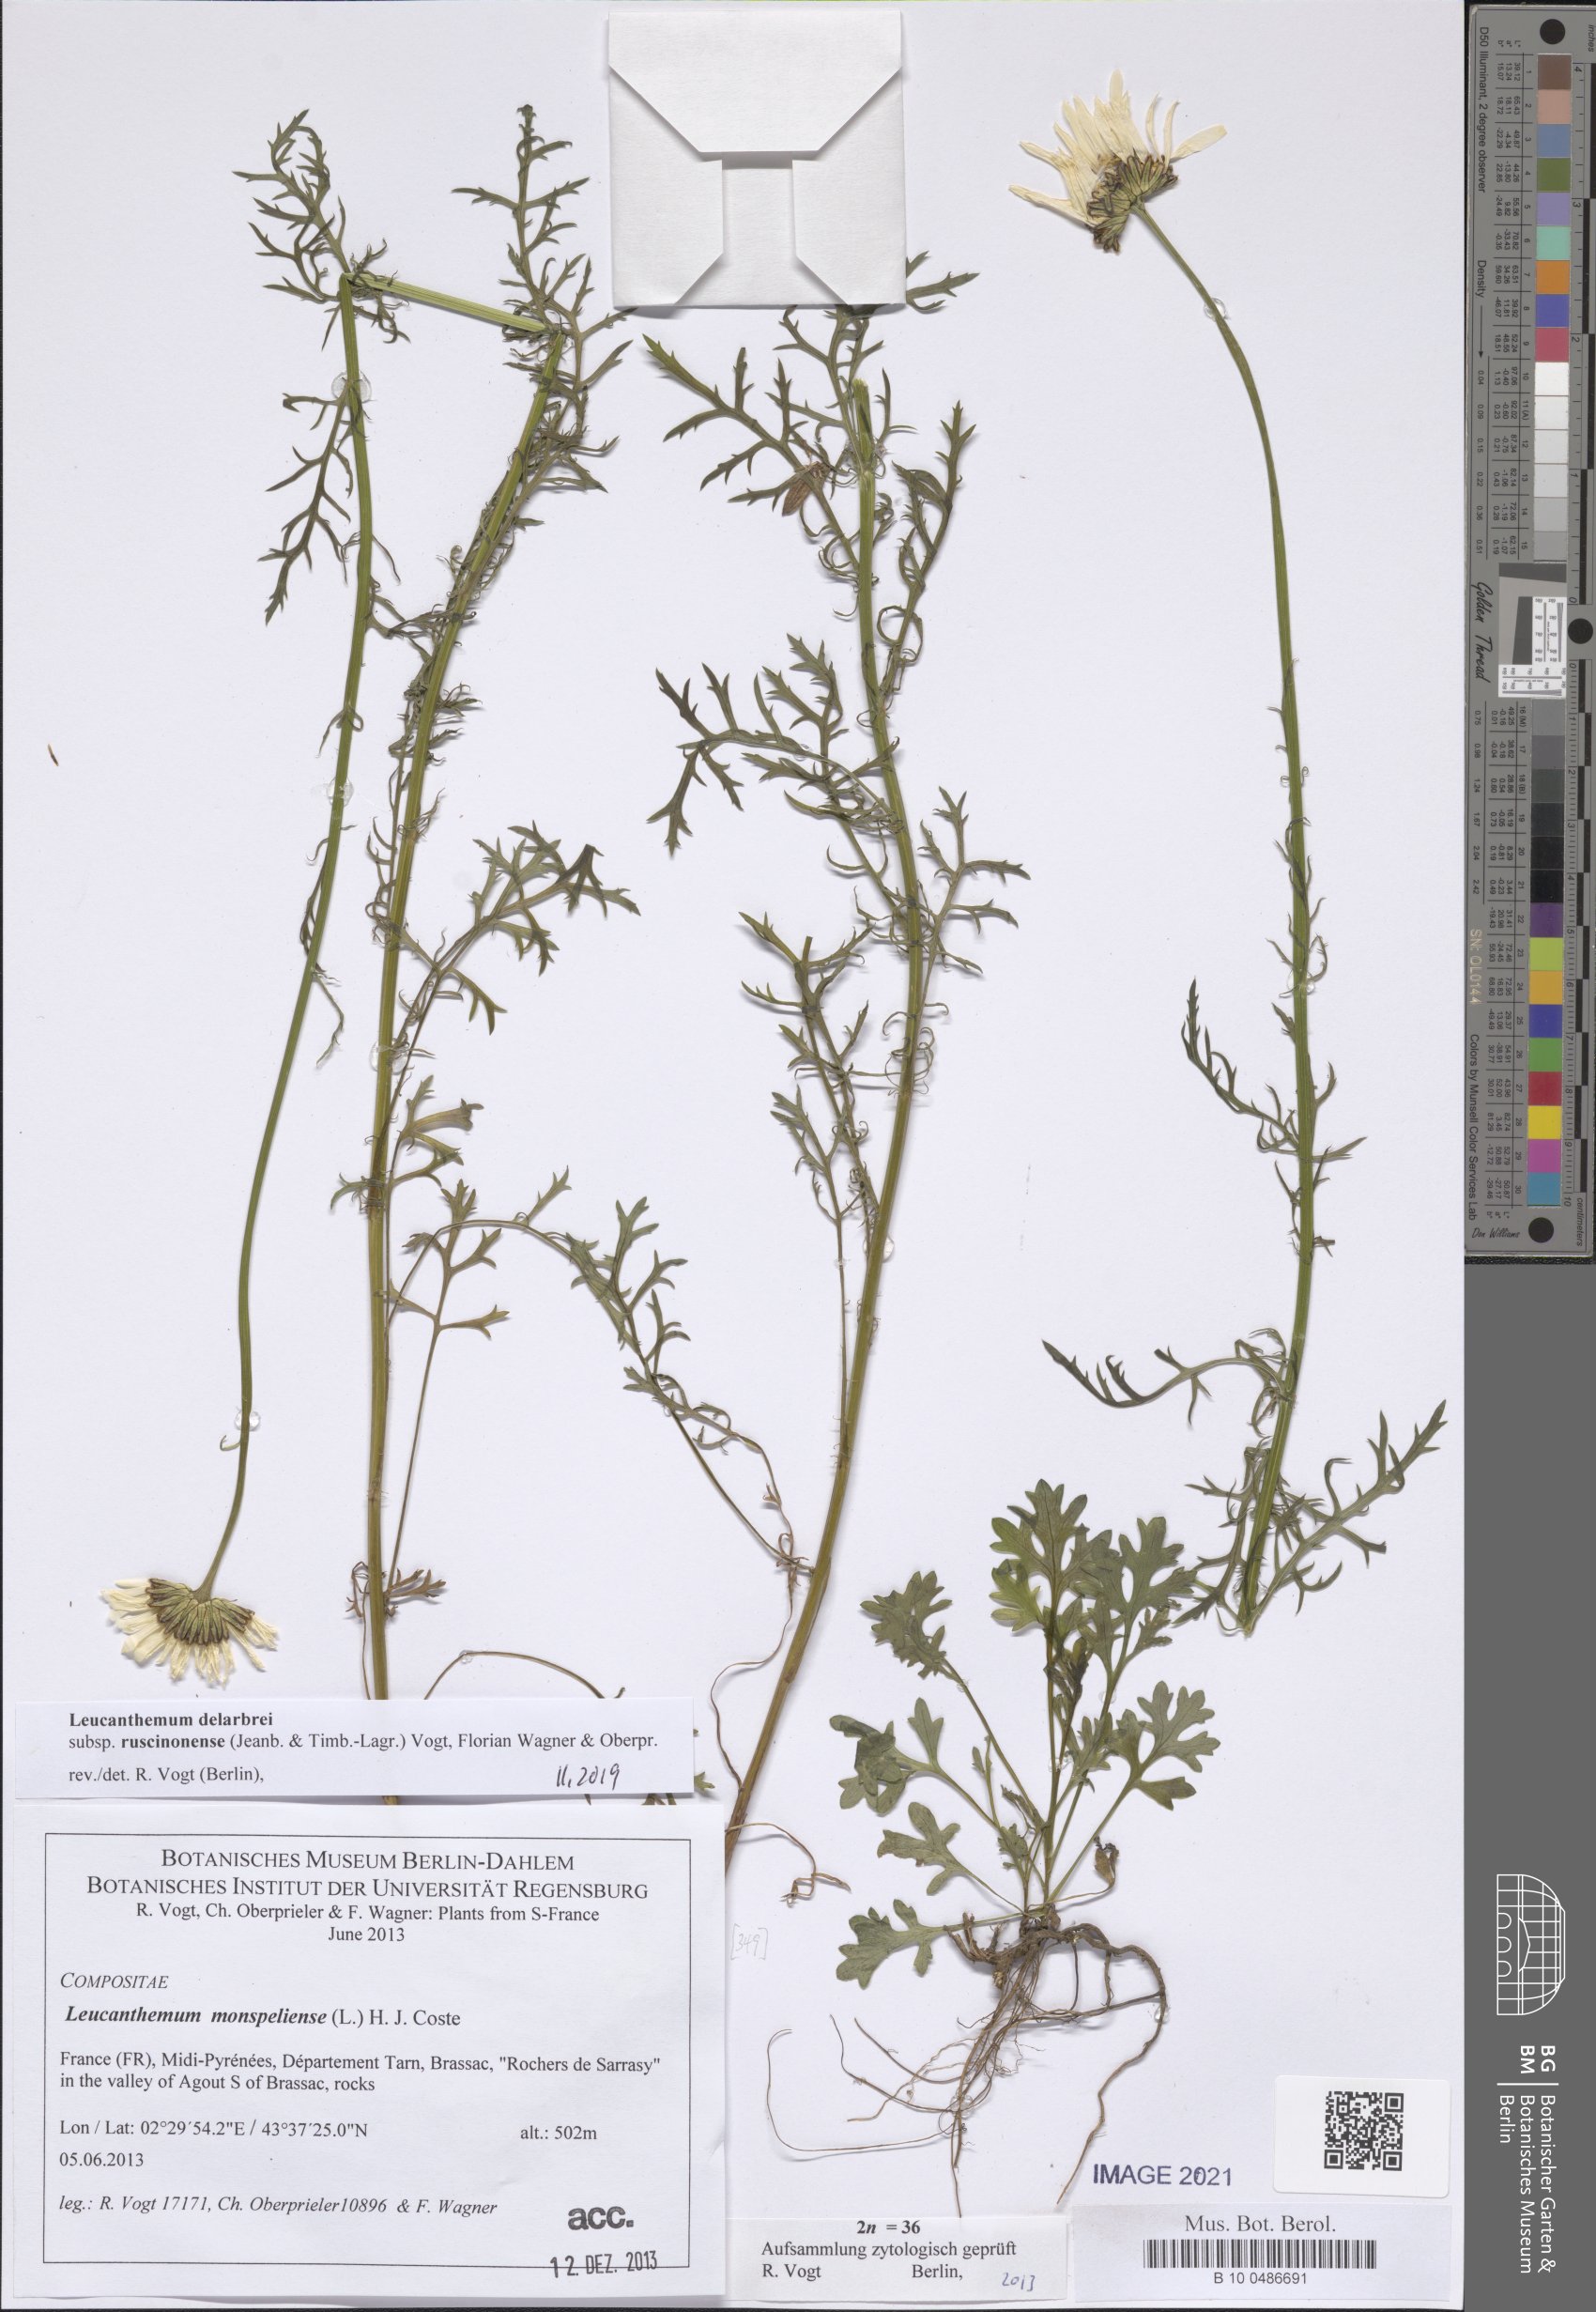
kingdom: Plantae
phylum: Tracheophyta
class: Magnoliopsida
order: Asterales
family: Asteraceae
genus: Leucanthemum
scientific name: Leucanthemum delarbrei
